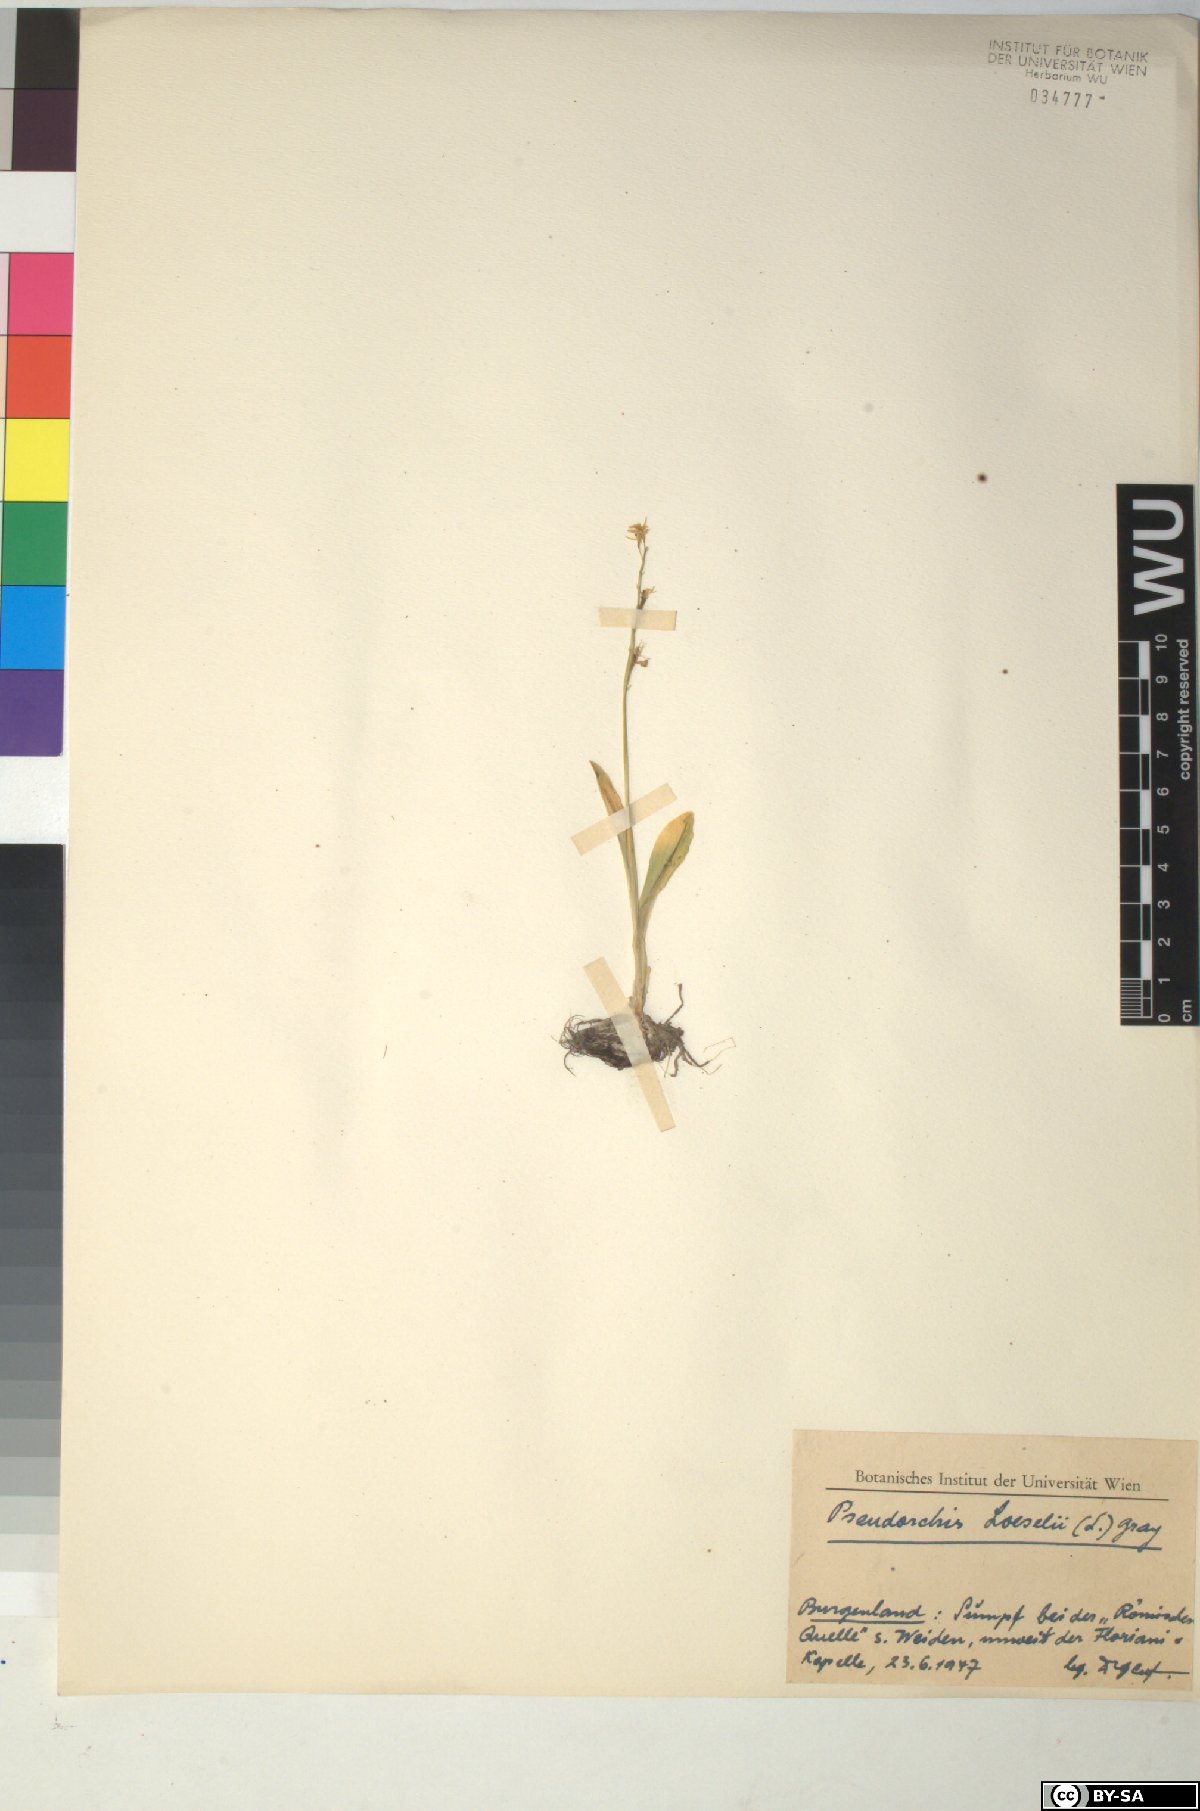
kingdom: Animalia
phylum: Arthropoda
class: Insecta
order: Coleoptera
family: Curculionidae
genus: Liparis
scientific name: Liparis loeselii
